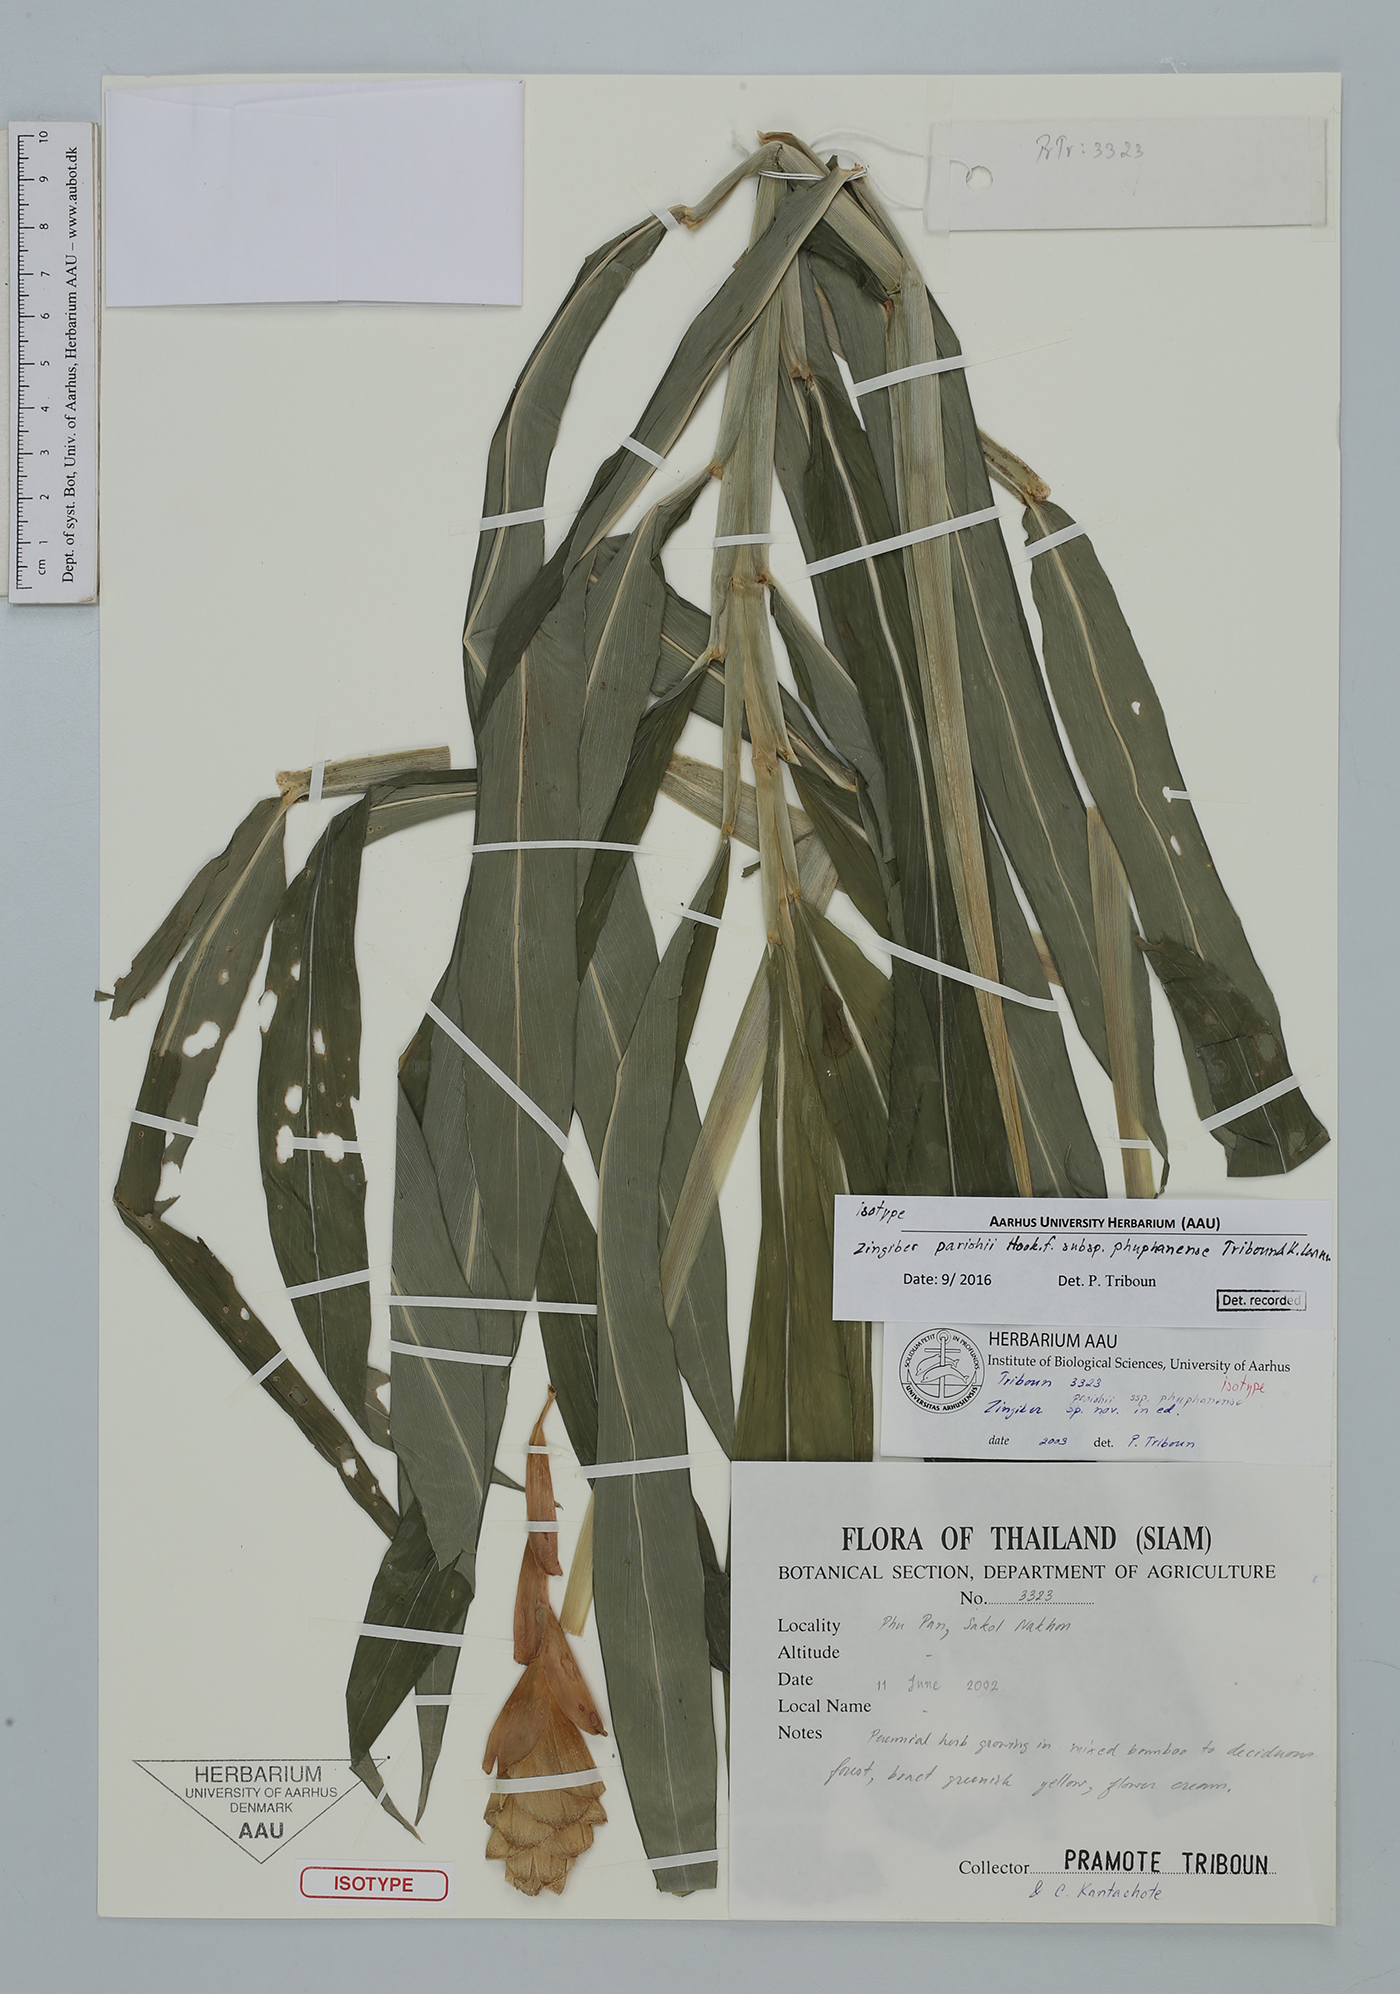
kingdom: Plantae
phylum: Tracheophyta
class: Liliopsida
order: Zingiberales
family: Zingiberaceae
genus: Zingiber
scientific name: Zingiber parishii
